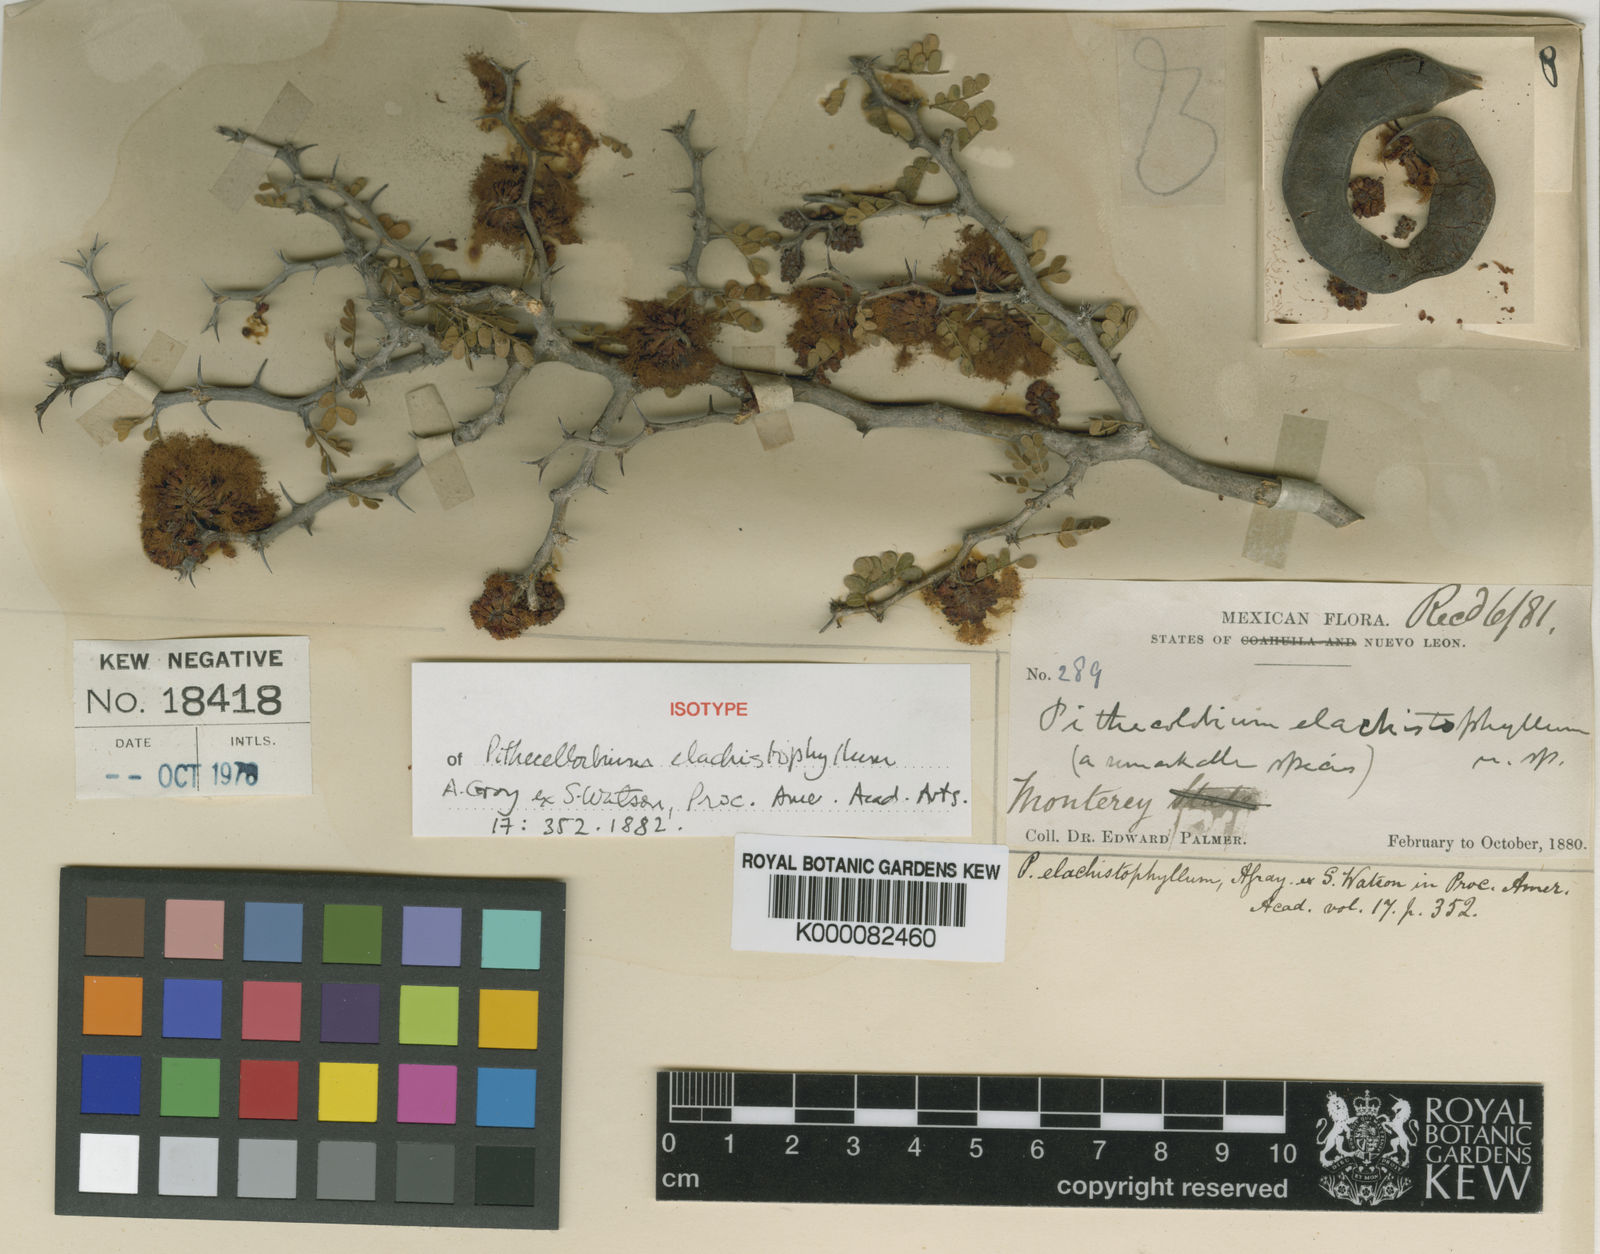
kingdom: Plantae
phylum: Tracheophyta
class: Magnoliopsida
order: Fabales
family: Fabaceae
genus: Havardia
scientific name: Havardia
